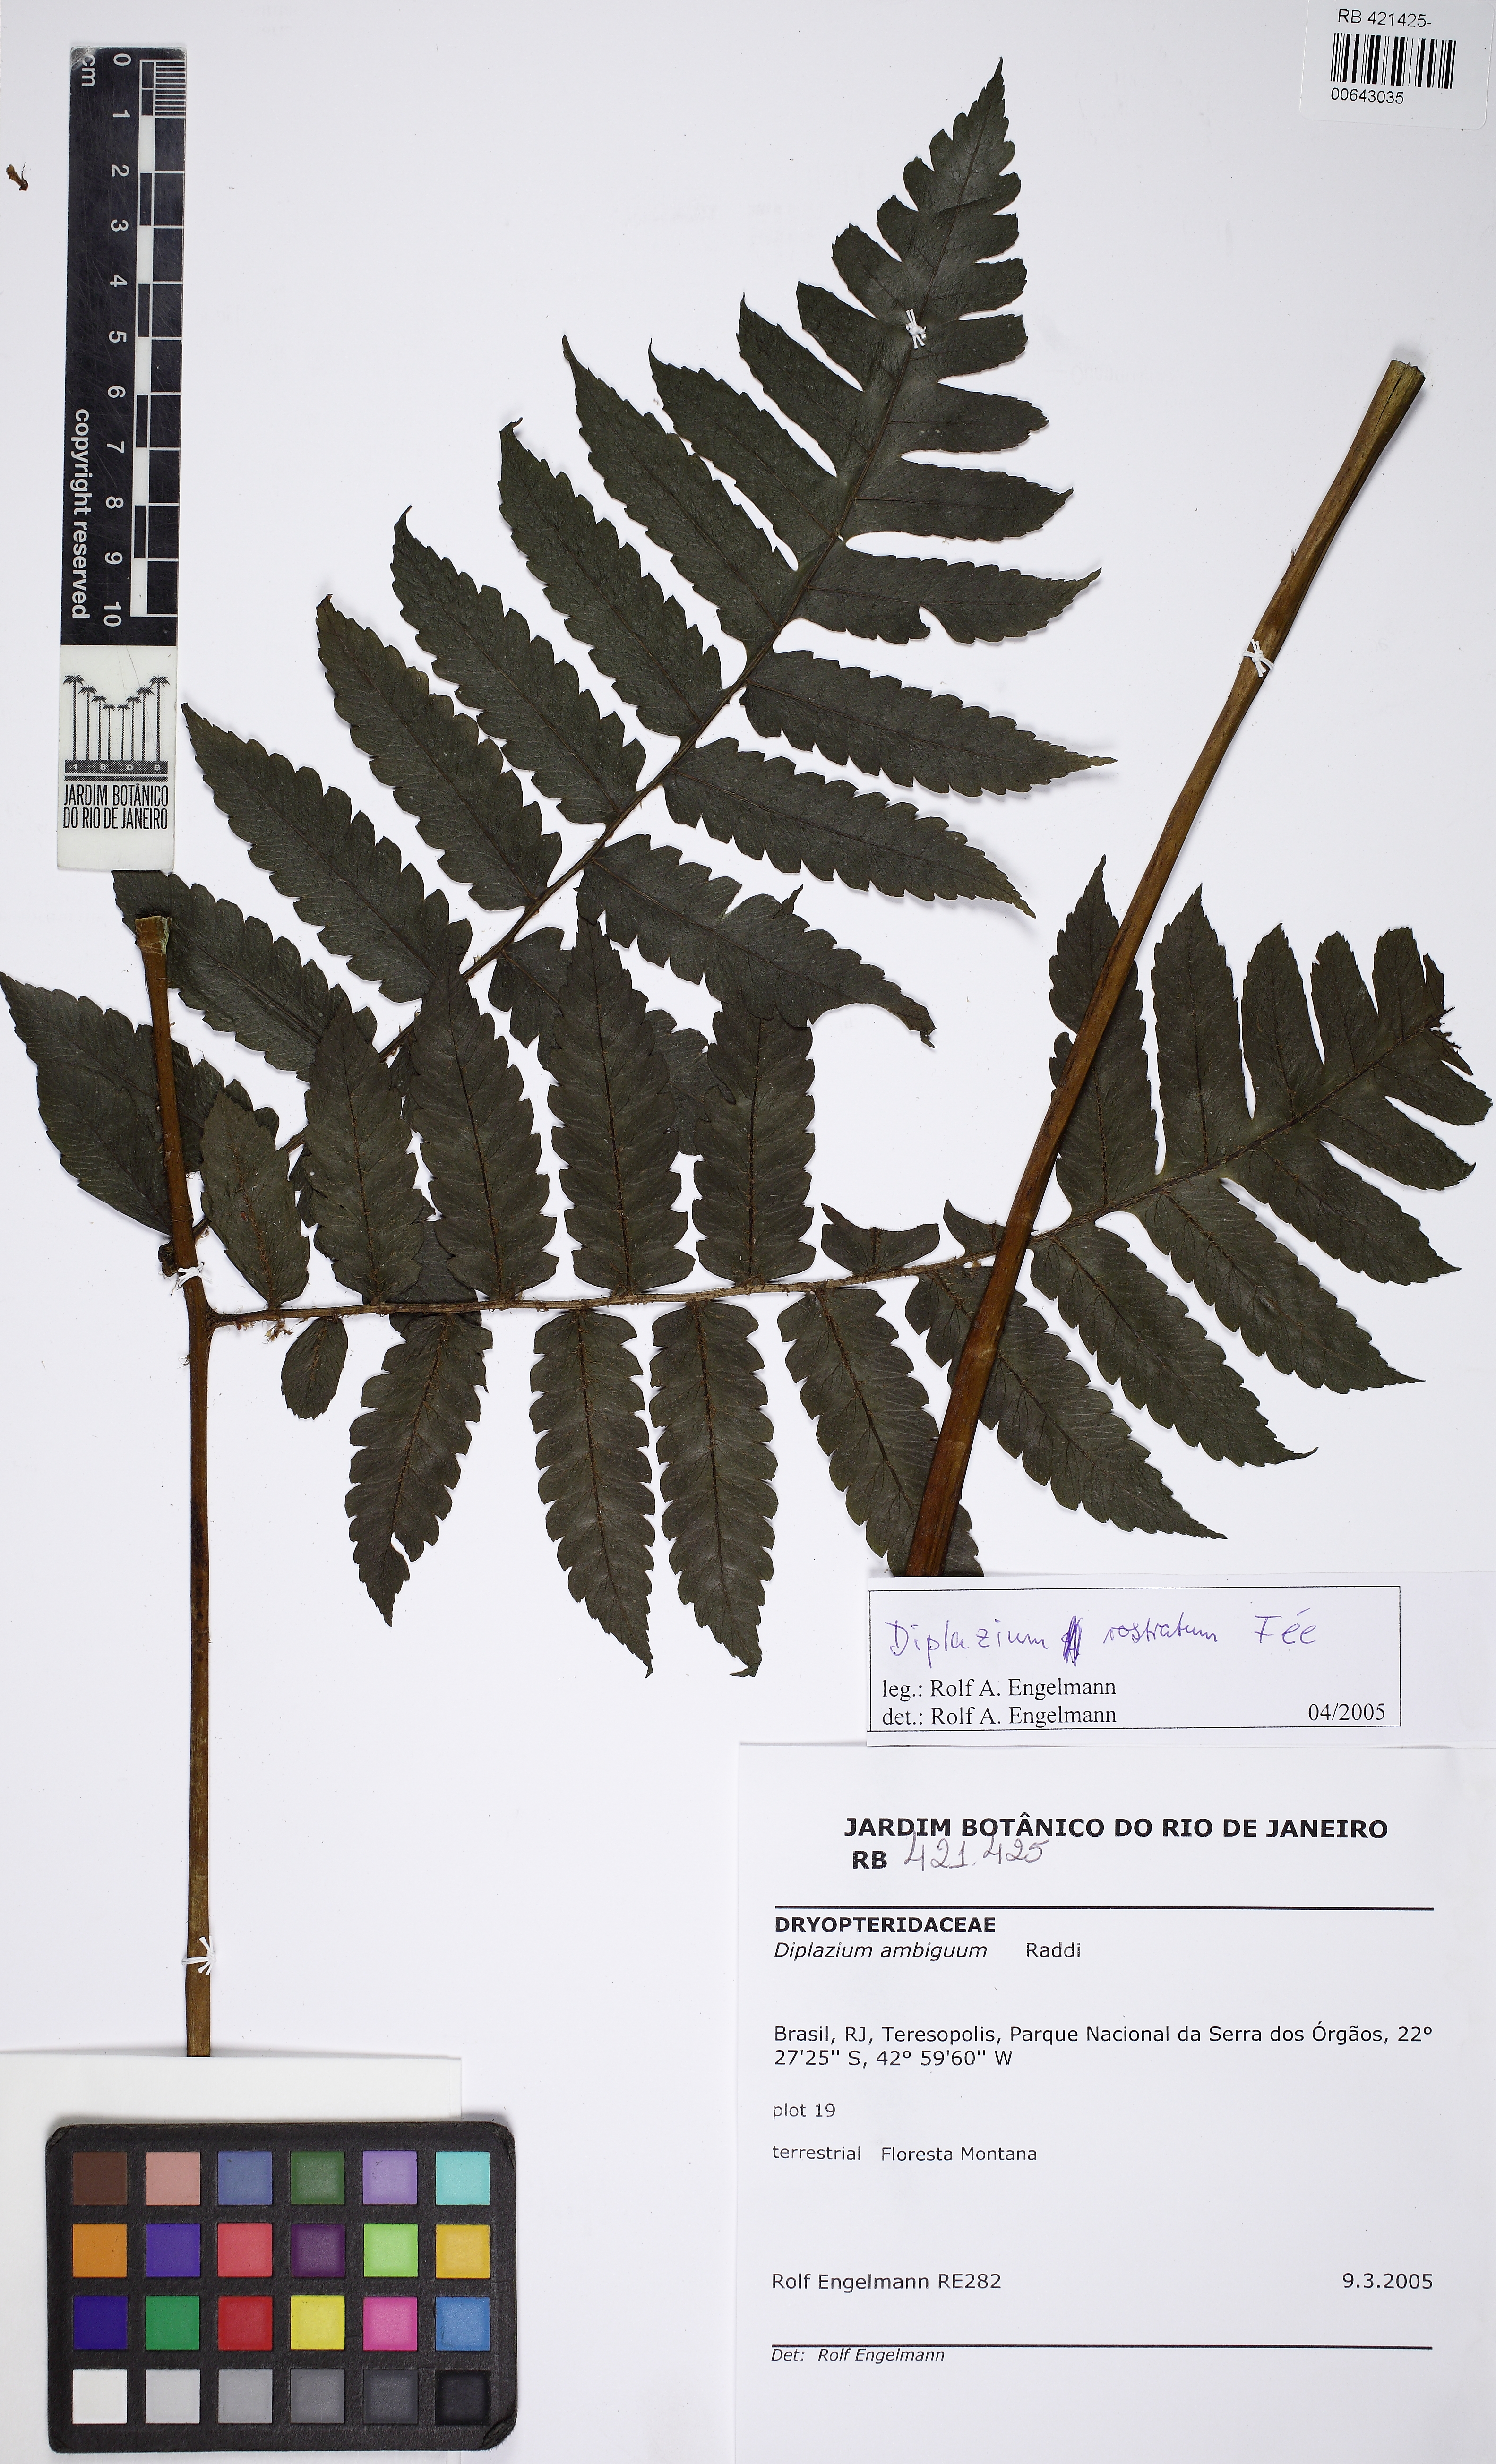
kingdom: Plantae
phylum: Tracheophyta
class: Polypodiopsida
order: Polypodiales
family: Athyriaceae
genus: Diplazium
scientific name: Diplazium rostratum
